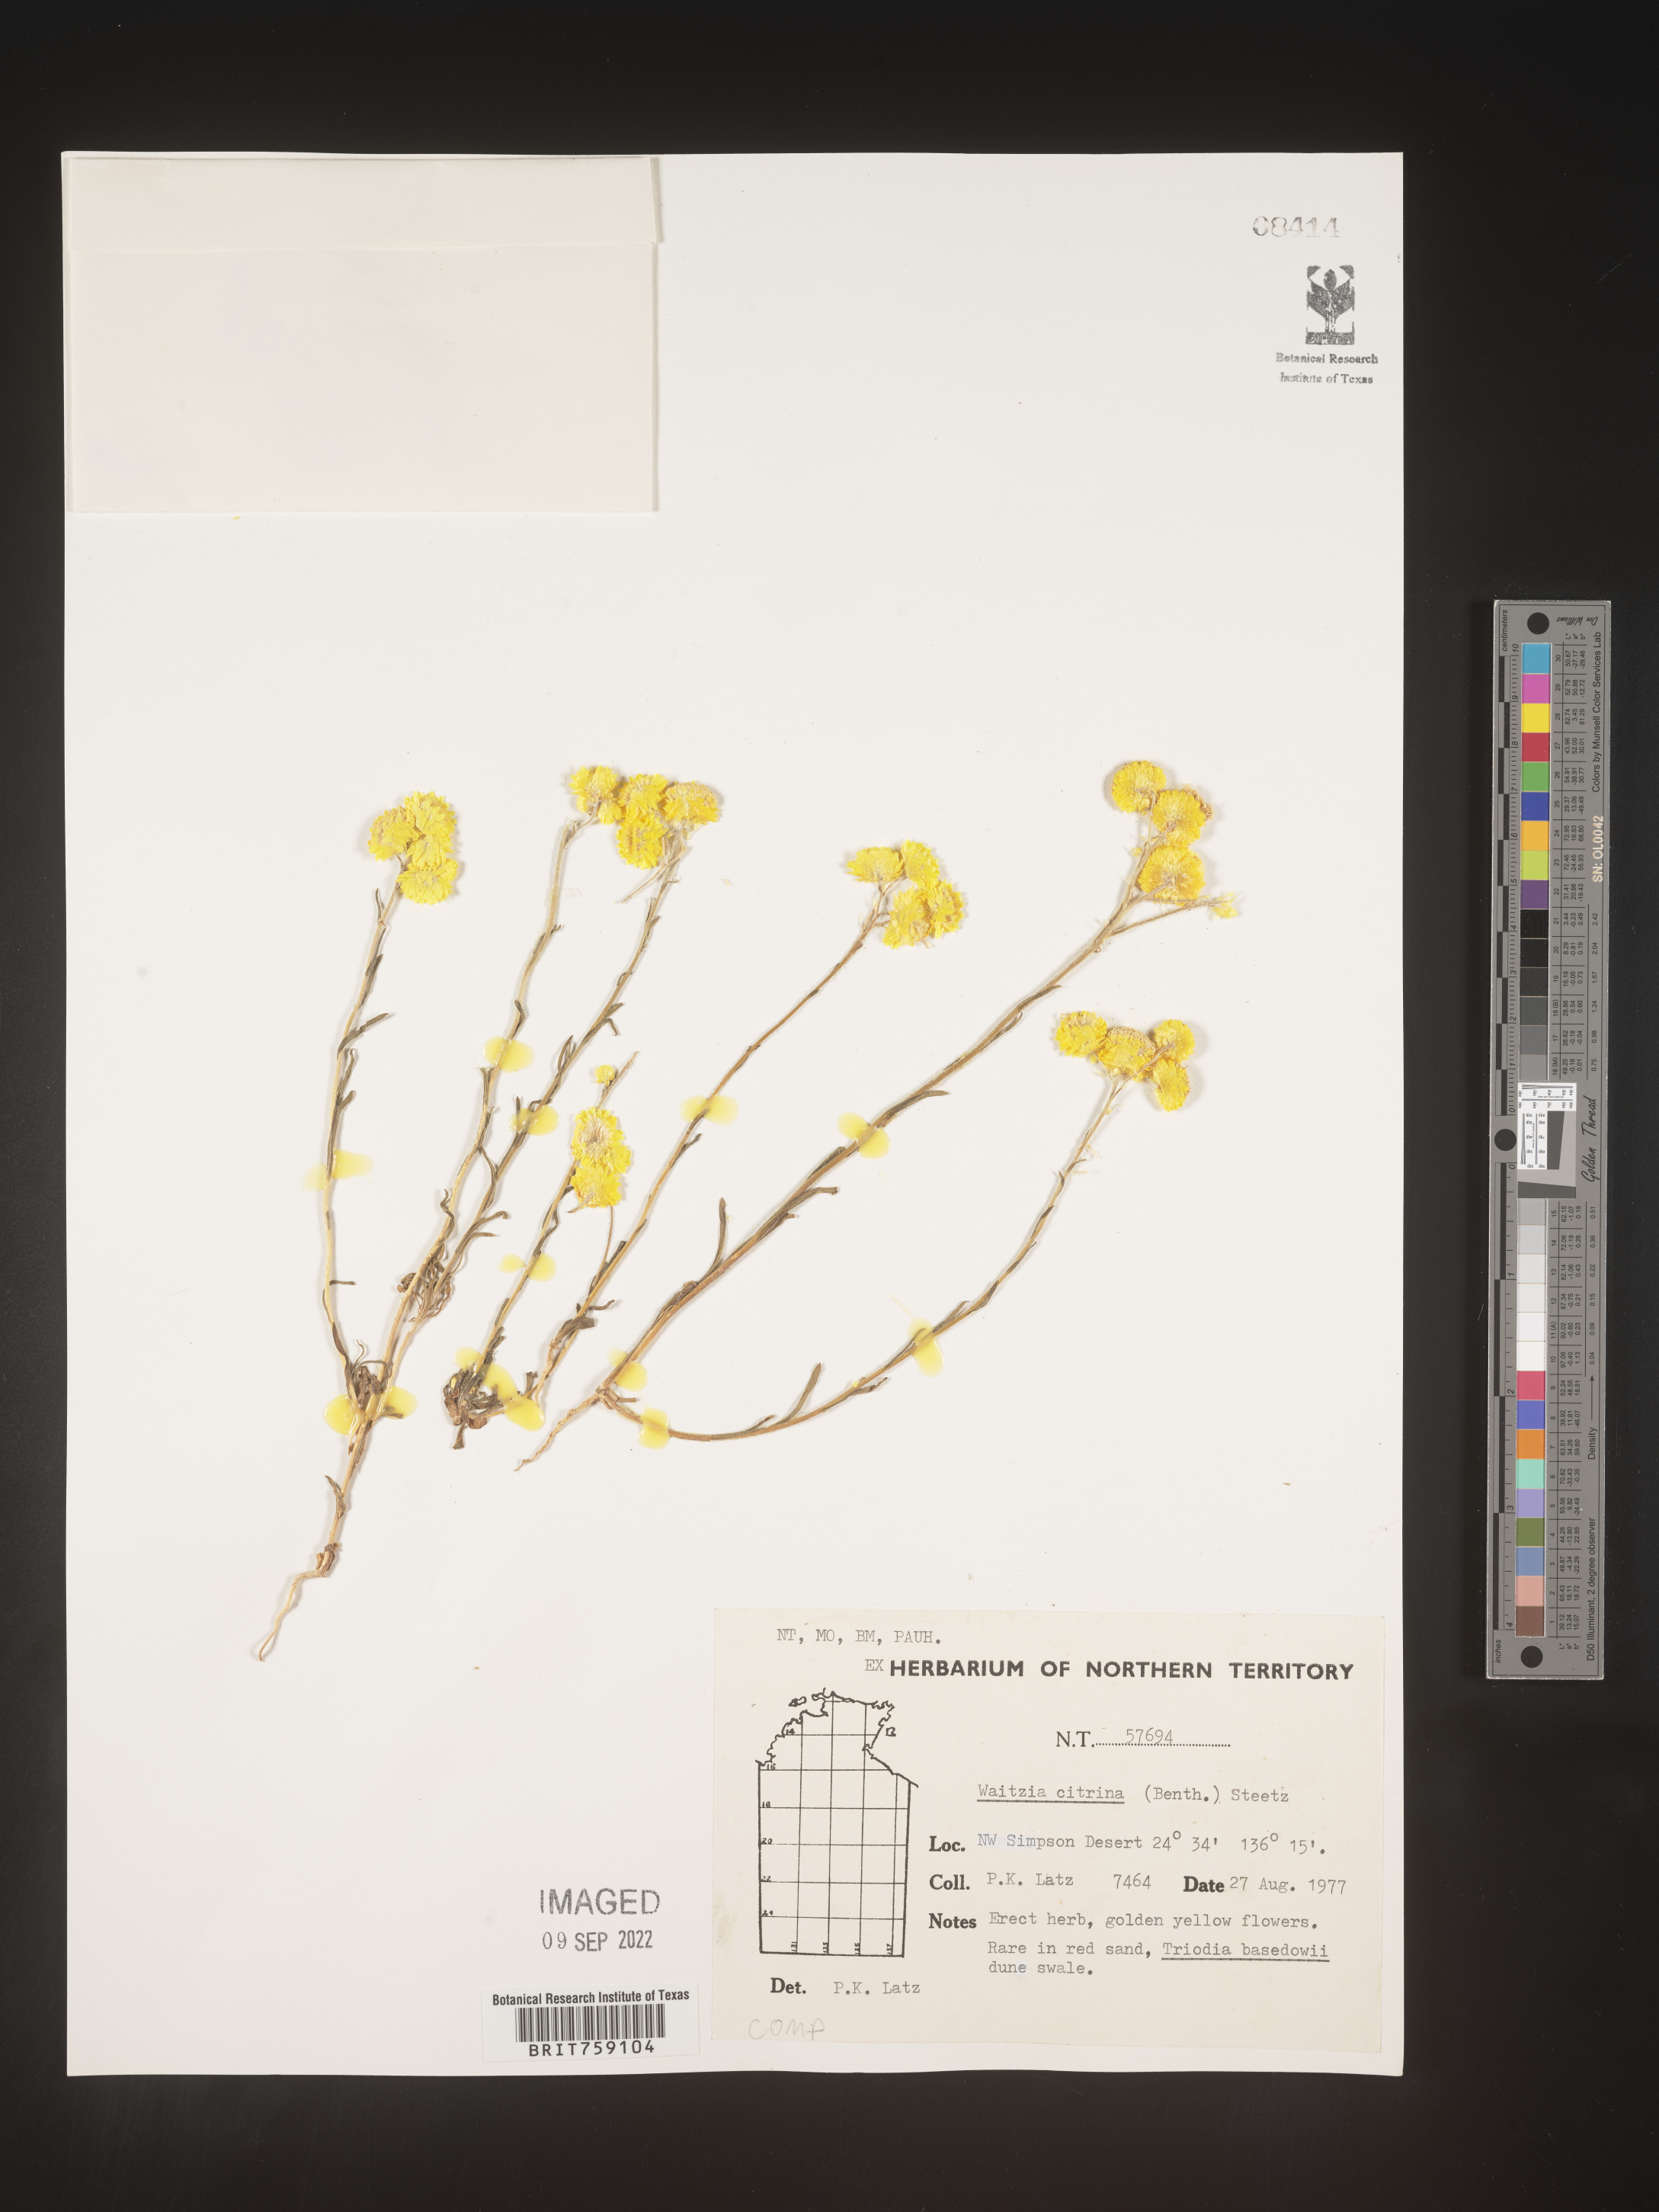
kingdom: Plantae
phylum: Tracheophyta
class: Magnoliopsida
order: Asterales
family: Asteraceae
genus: Waitzia
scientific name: Waitzia
